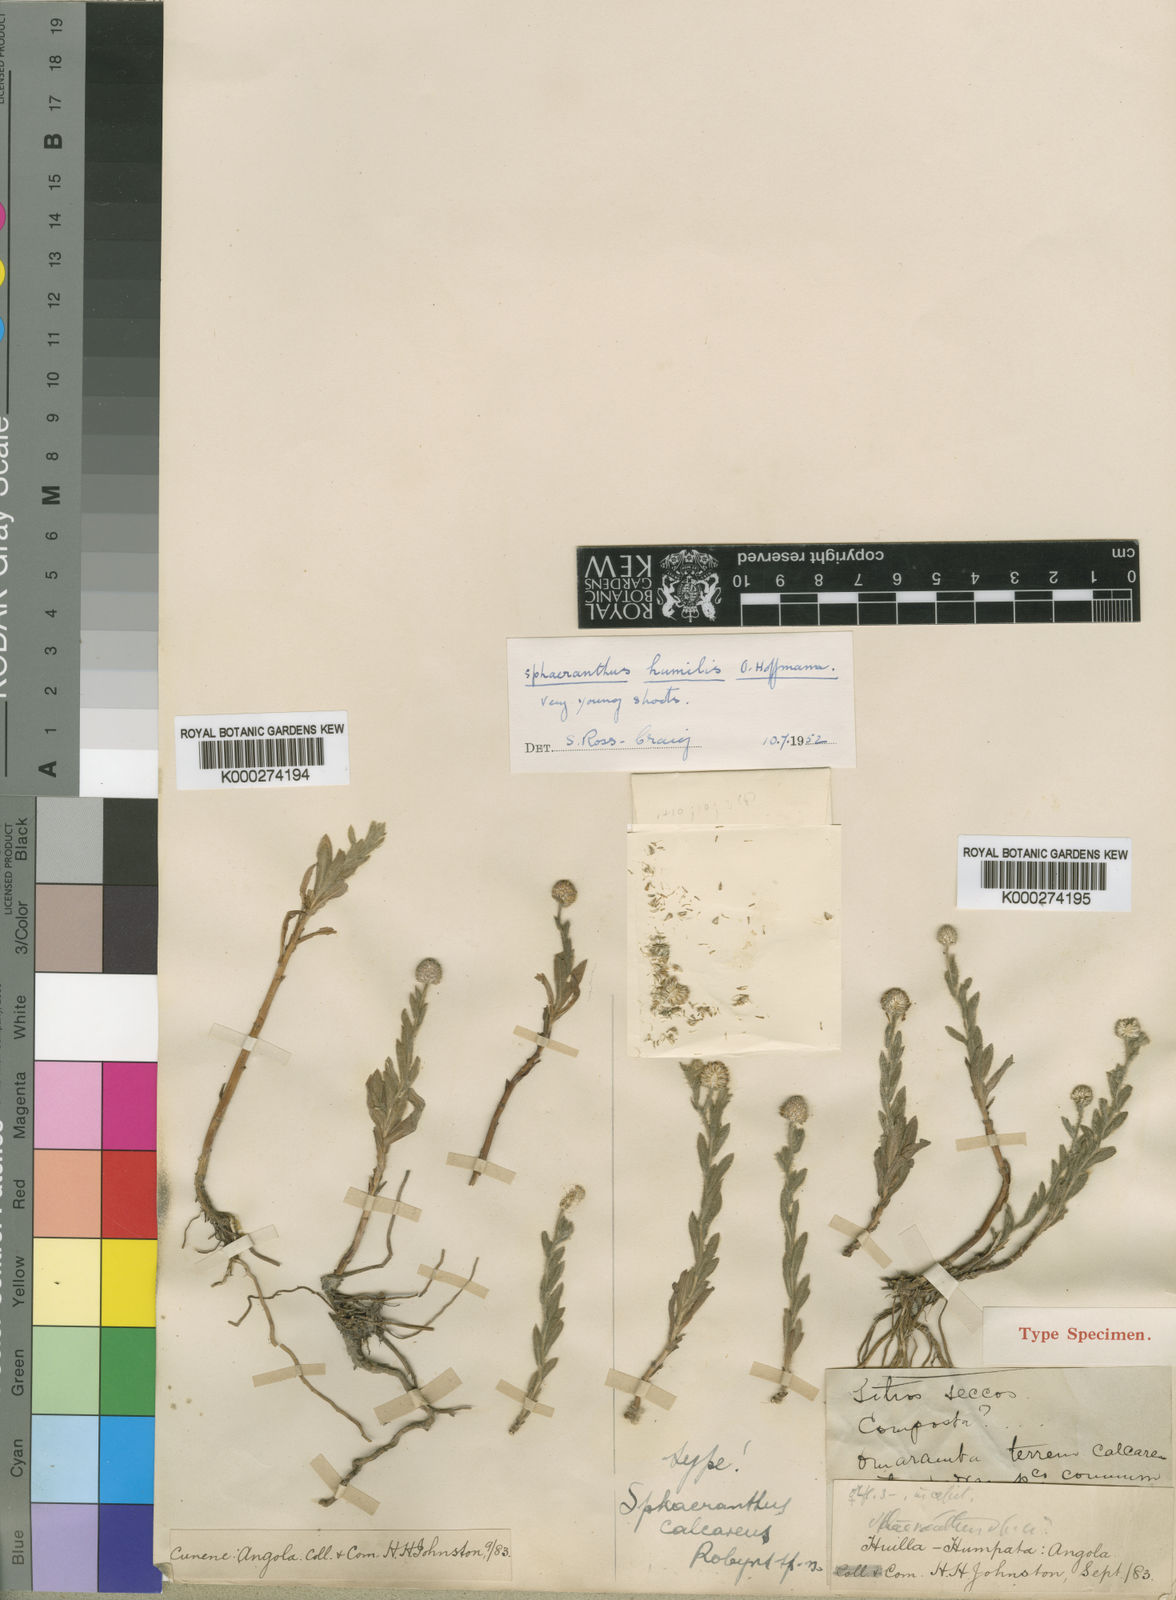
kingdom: Plantae
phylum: Tracheophyta
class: Magnoliopsida
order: Asterales
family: Asteraceae
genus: Sphaeranthus
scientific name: Sphaeranthus flexuosus
